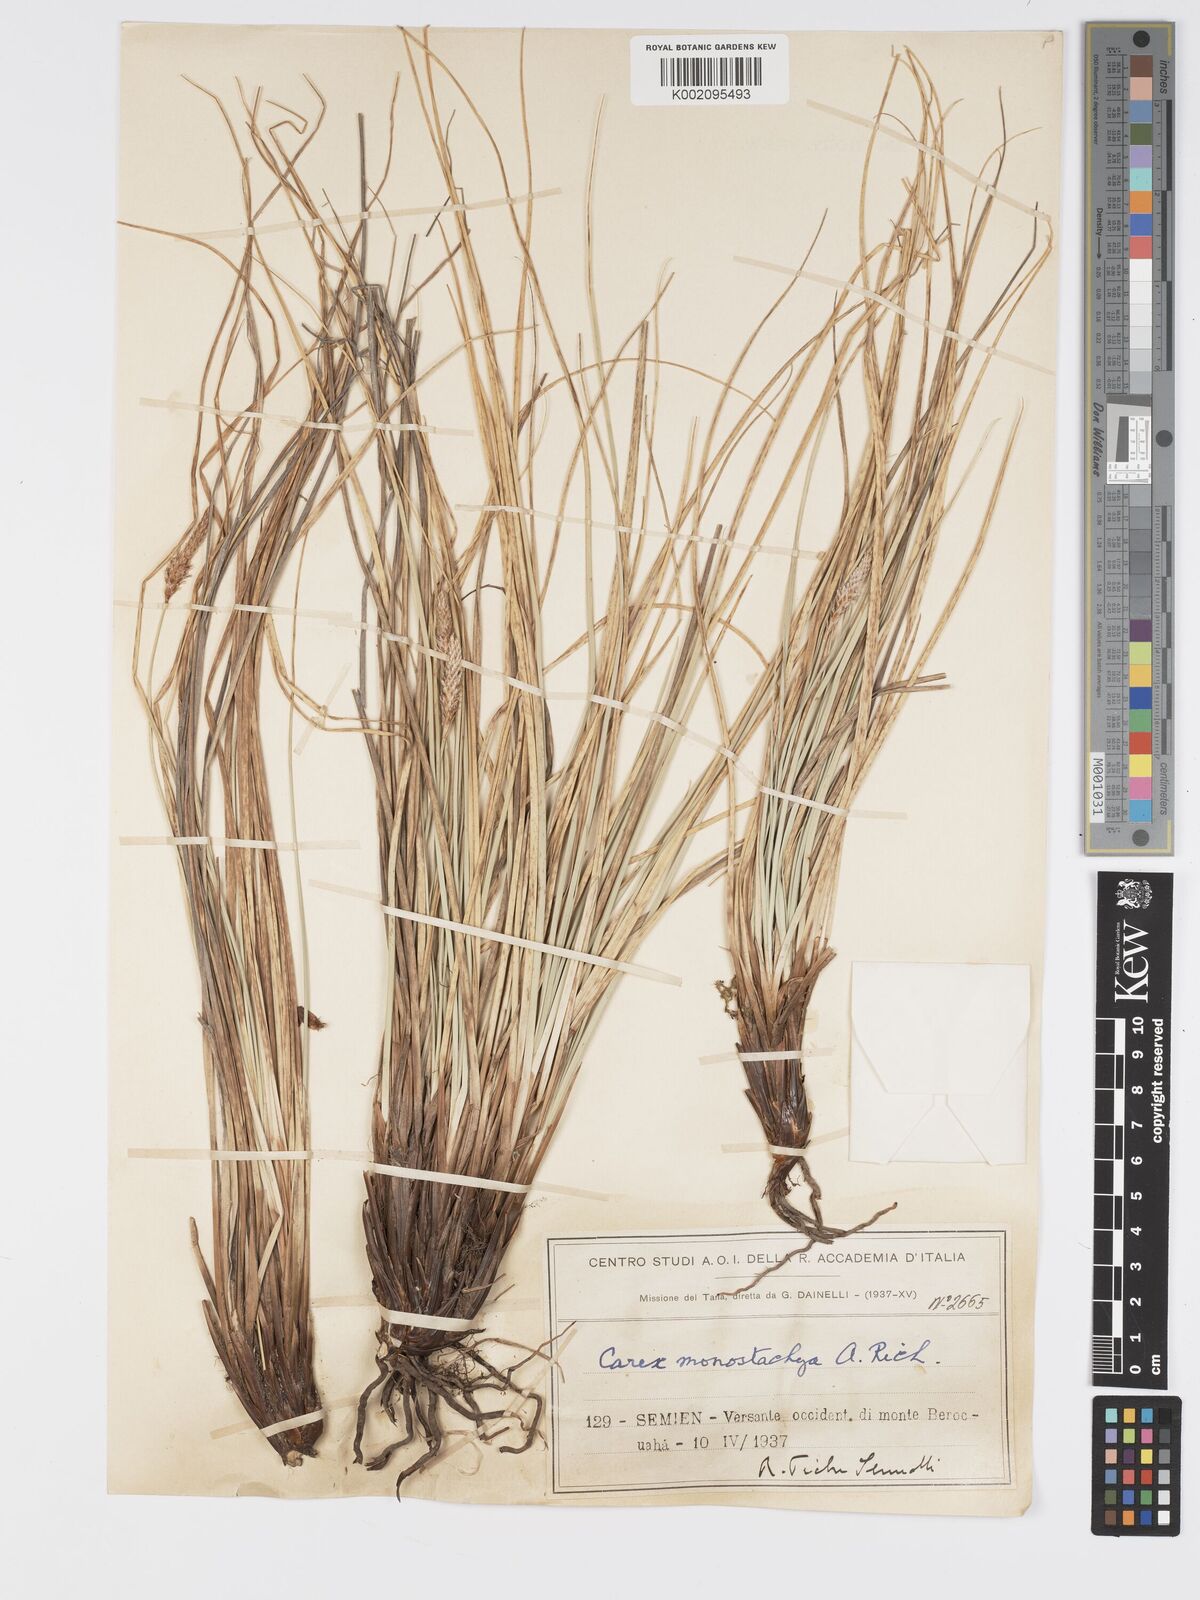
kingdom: Plantae
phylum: Tracheophyta
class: Liliopsida
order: Poales
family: Cyperaceae
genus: Carex
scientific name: Carex monostachya
